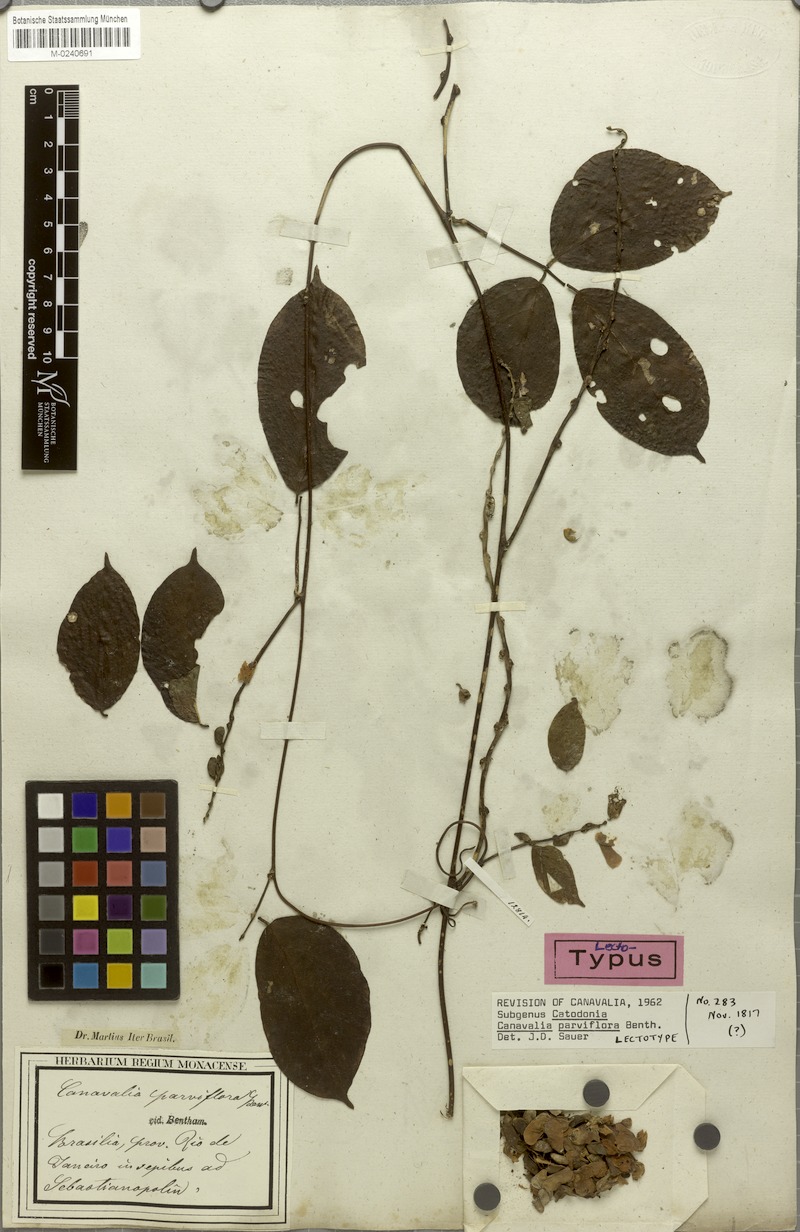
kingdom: Plantae
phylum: Tracheophyta
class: Magnoliopsida
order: Fabales
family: Fabaceae
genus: Canavalia
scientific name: Canavalia parviflora
